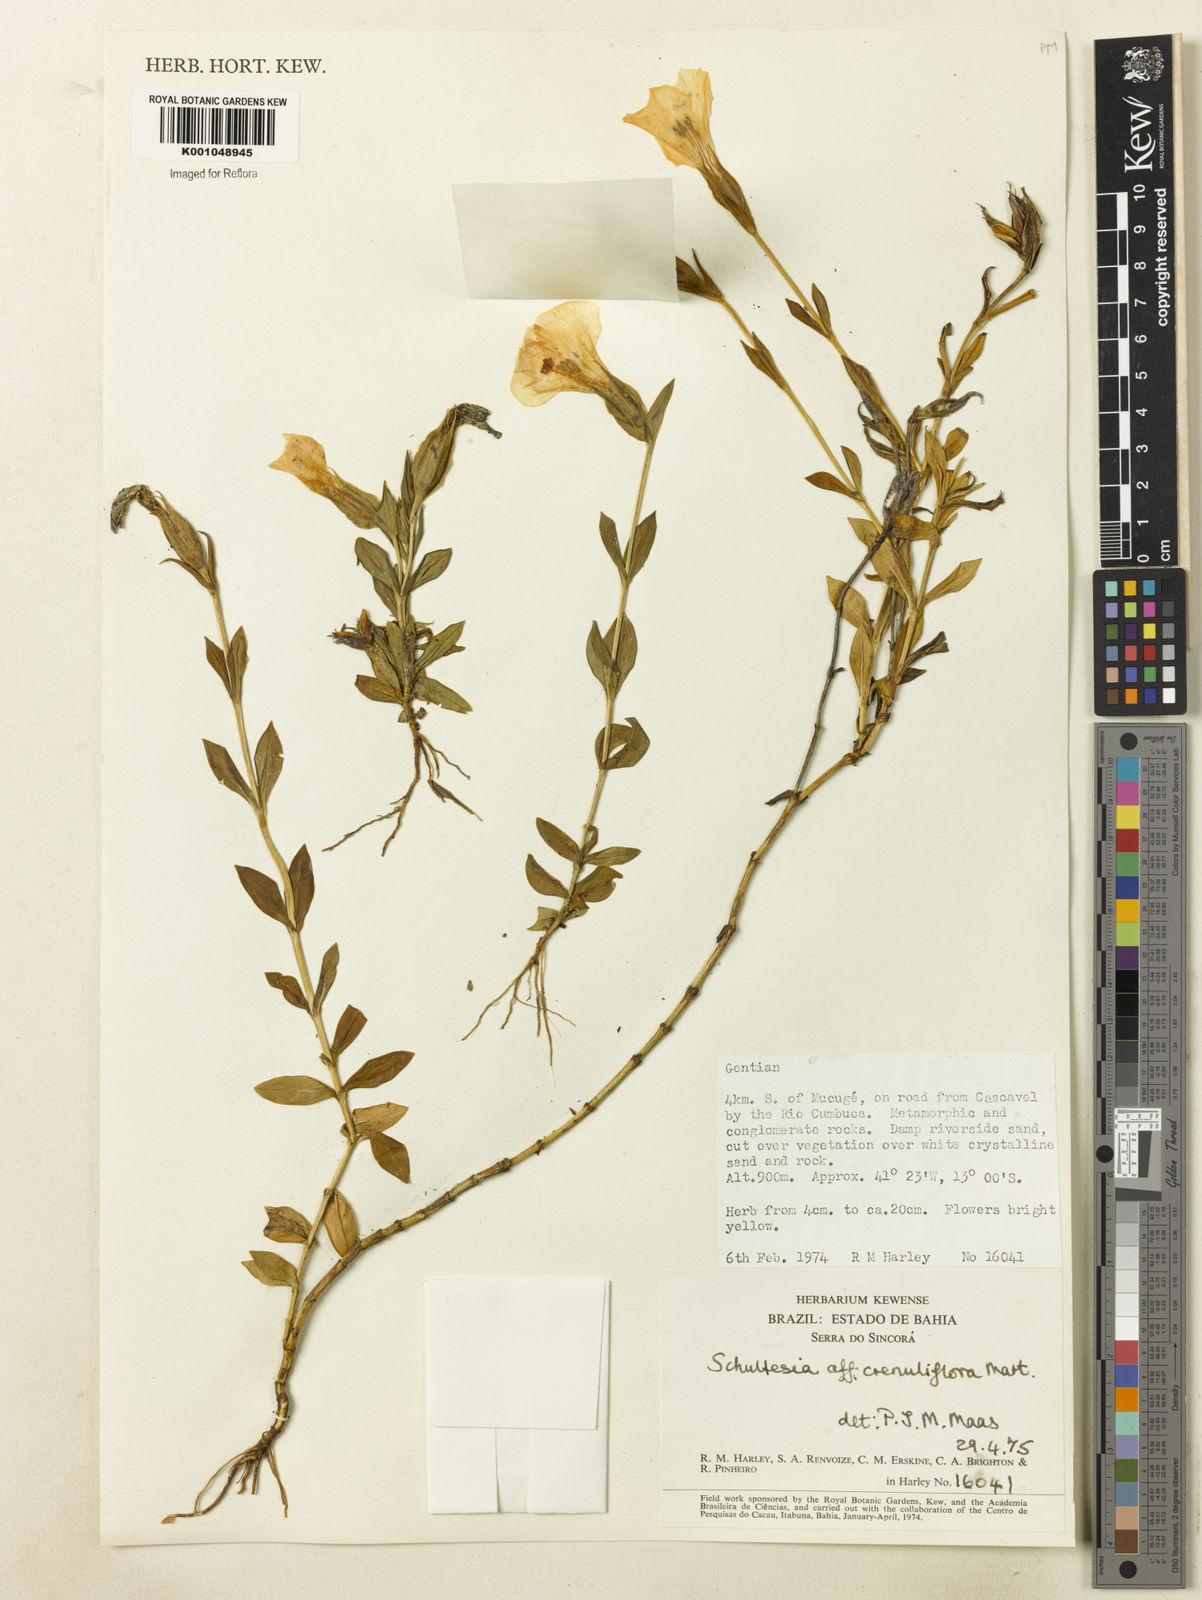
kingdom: Plantae
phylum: Tracheophyta
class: Magnoliopsida
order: Gentianales
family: Gentianaceae
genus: Schultesia
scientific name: Schultesia crenuliflora
